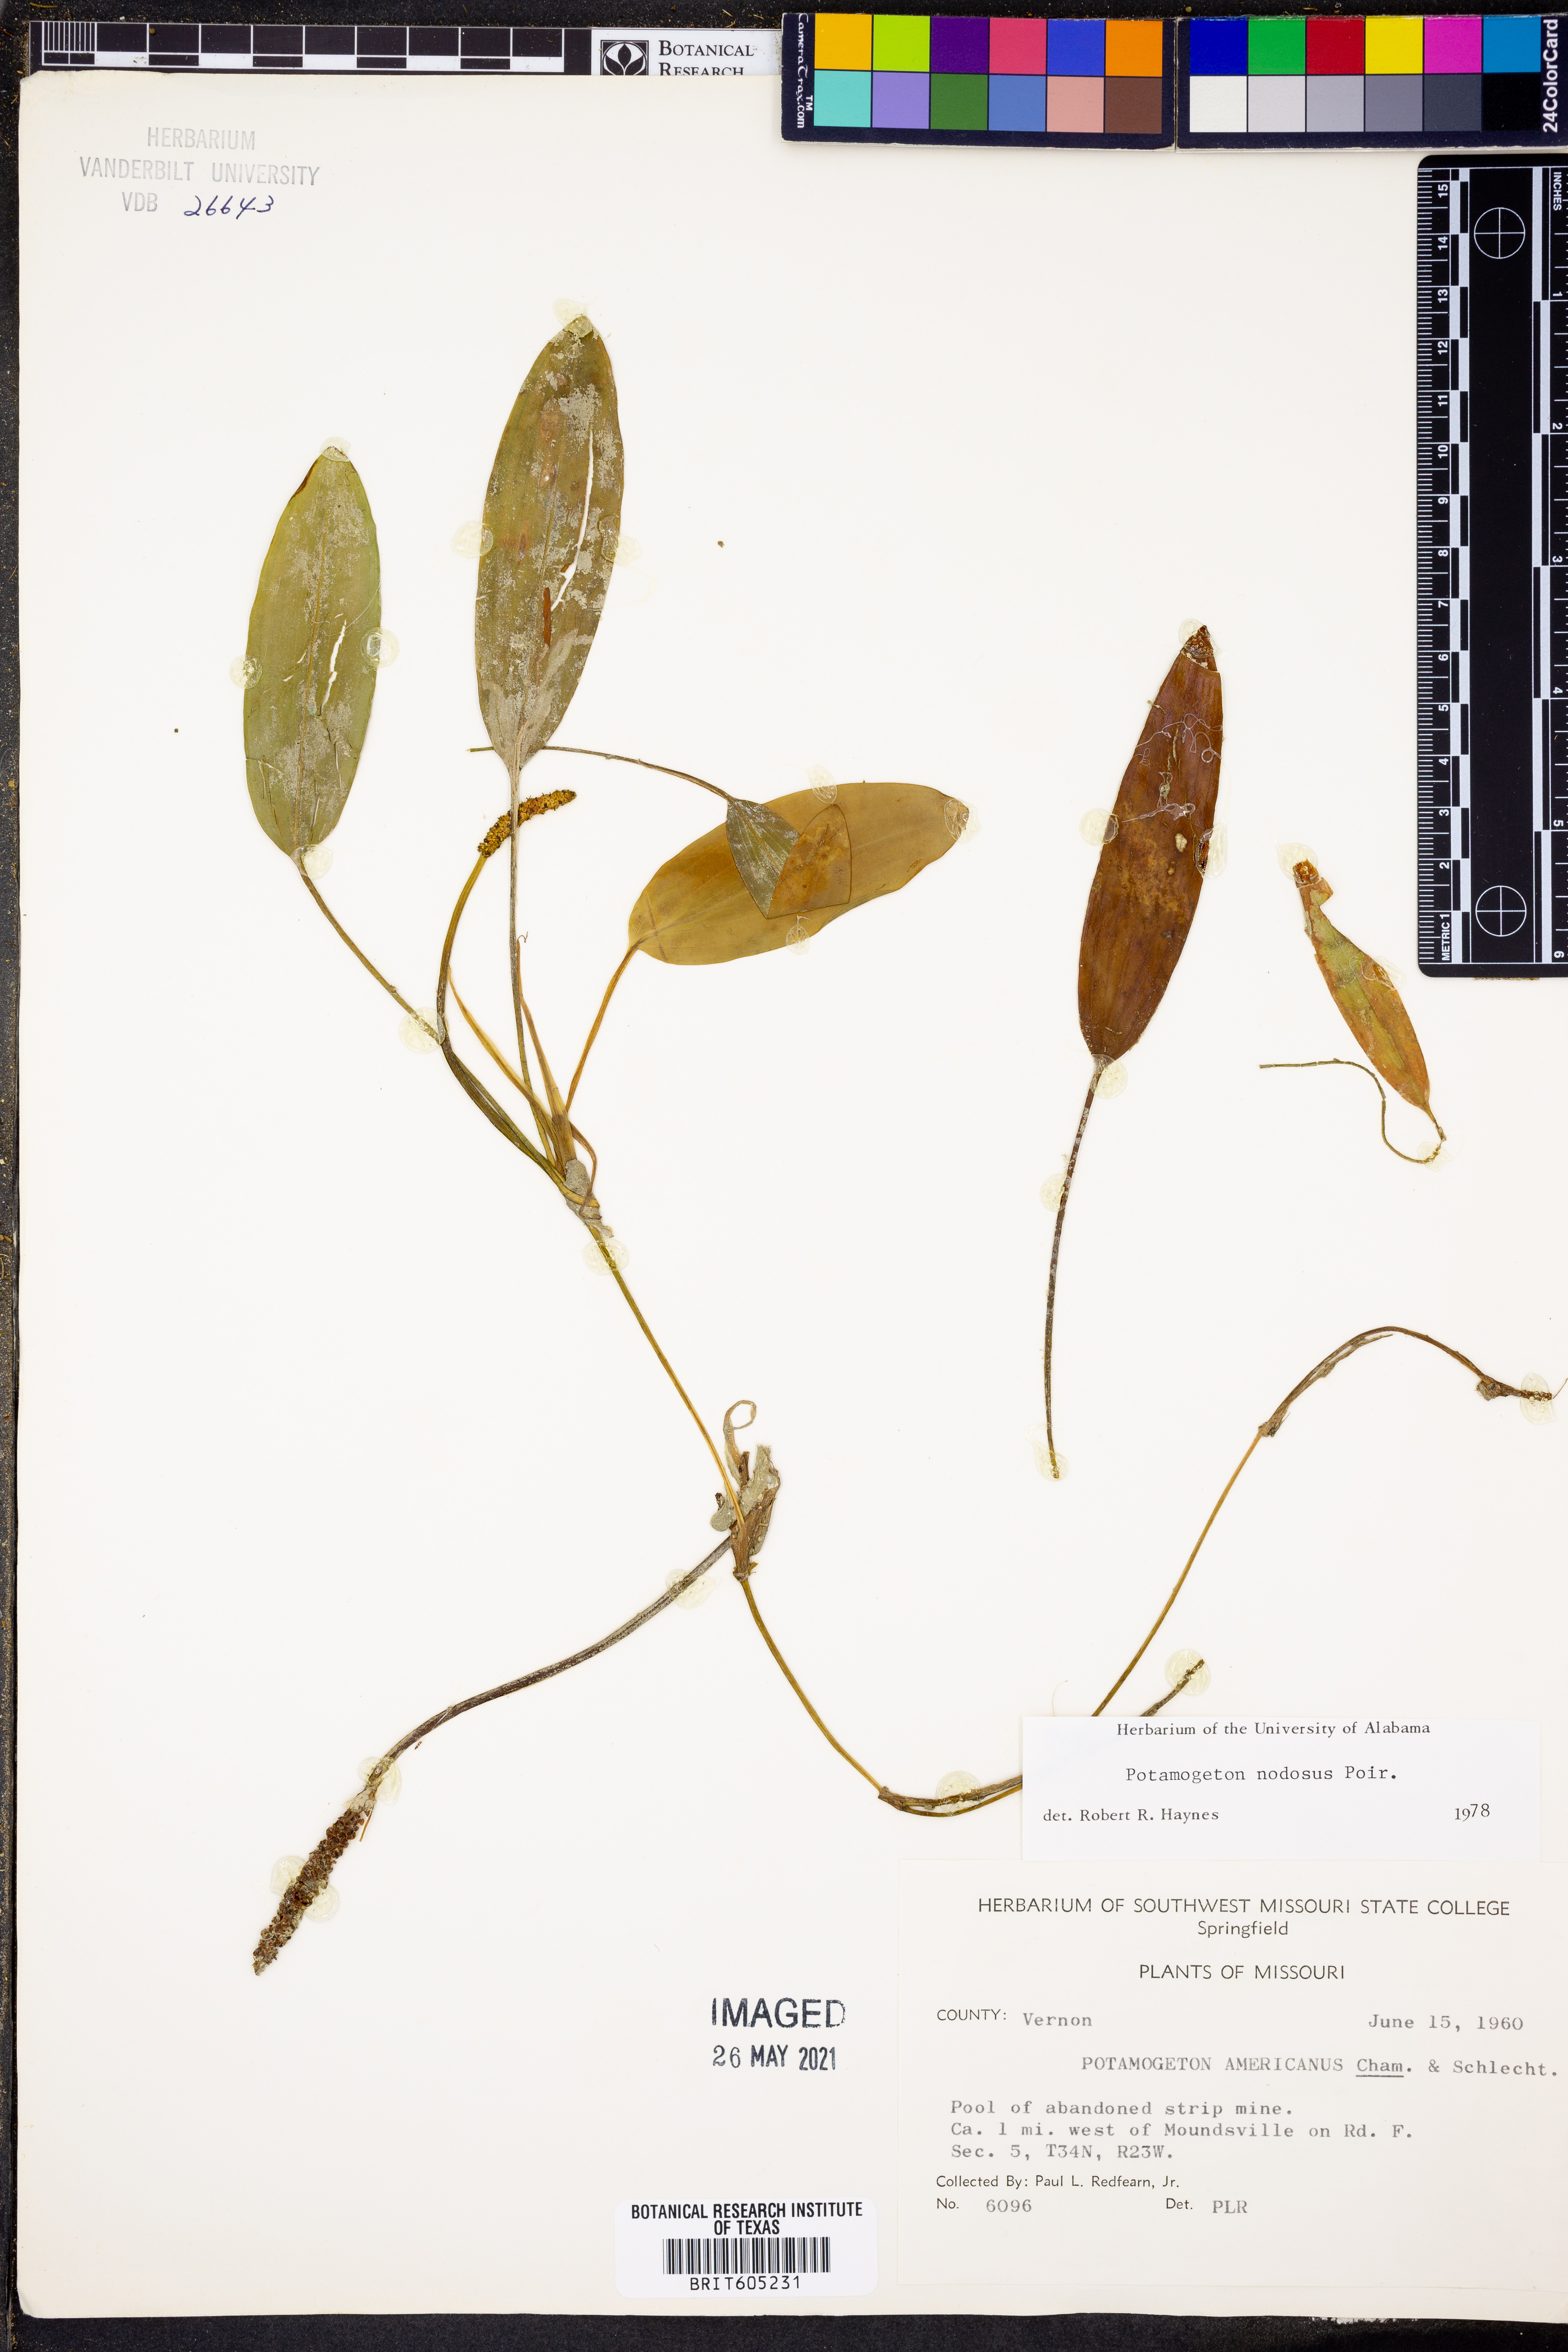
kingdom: Plantae
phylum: Tracheophyta
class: Liliopsida
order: Alismatales
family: Potamogetonaceae
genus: Potamogeton
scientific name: Potamogeton nodosus
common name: Loddon pondweed
